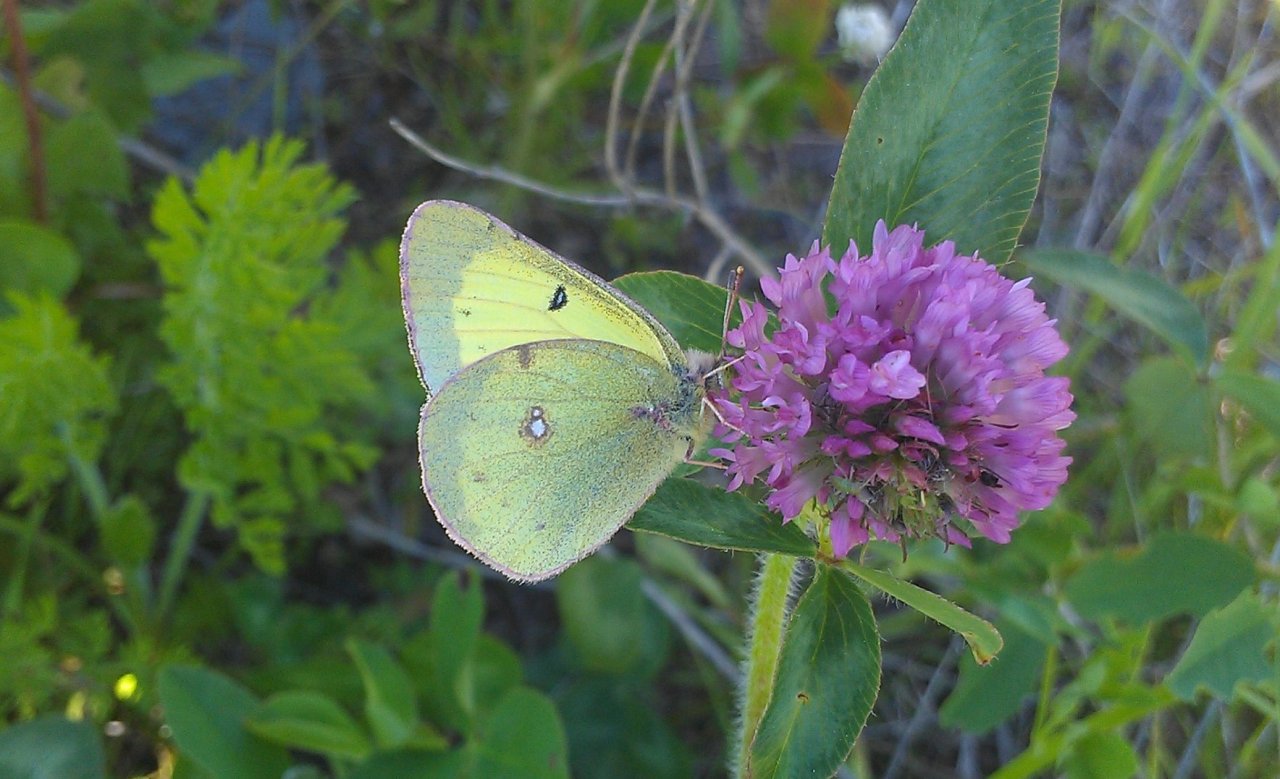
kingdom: Animalia
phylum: Arthropoda
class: Insecta
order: Lepidoptera
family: Pieridae
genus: Colias
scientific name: Colias philodice
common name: Clouded Sulphur
